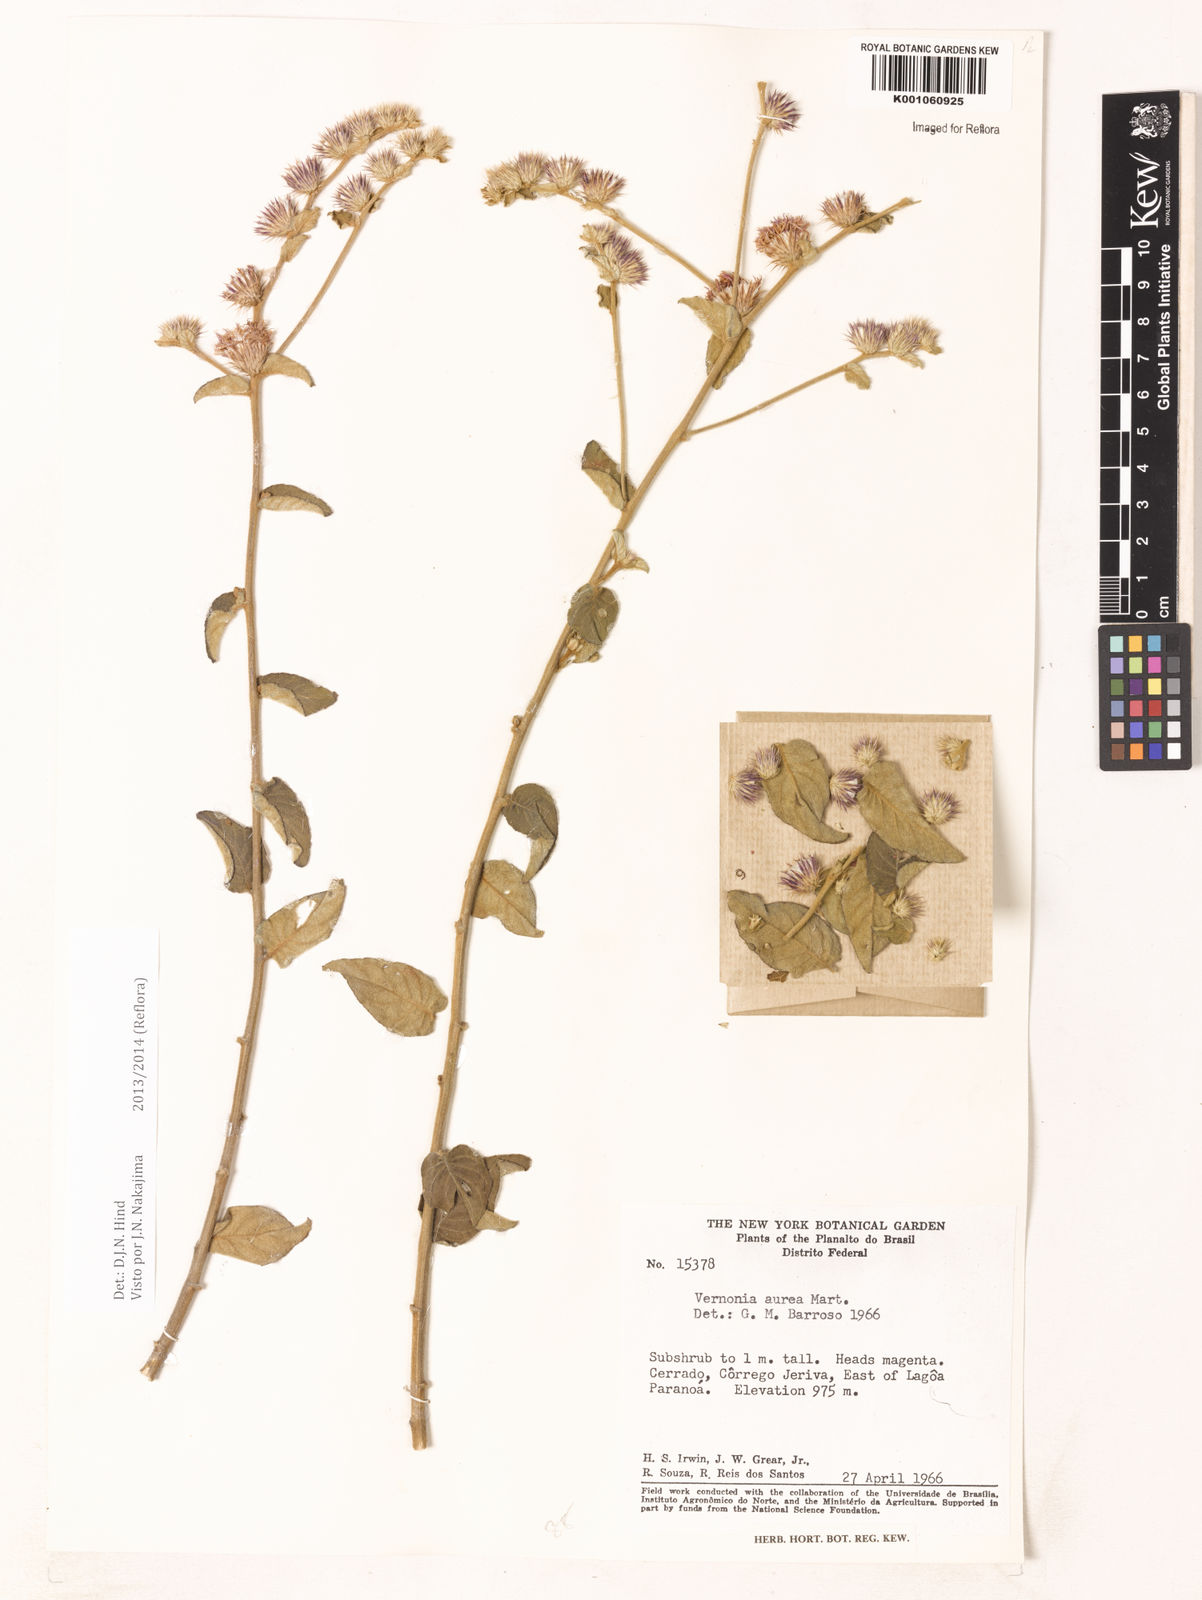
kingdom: Plantae
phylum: Tracheophyta
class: Magnoliopsida
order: Asterales
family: Asteraceae
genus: Lepidaploa
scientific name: Lepidaploa aurea
